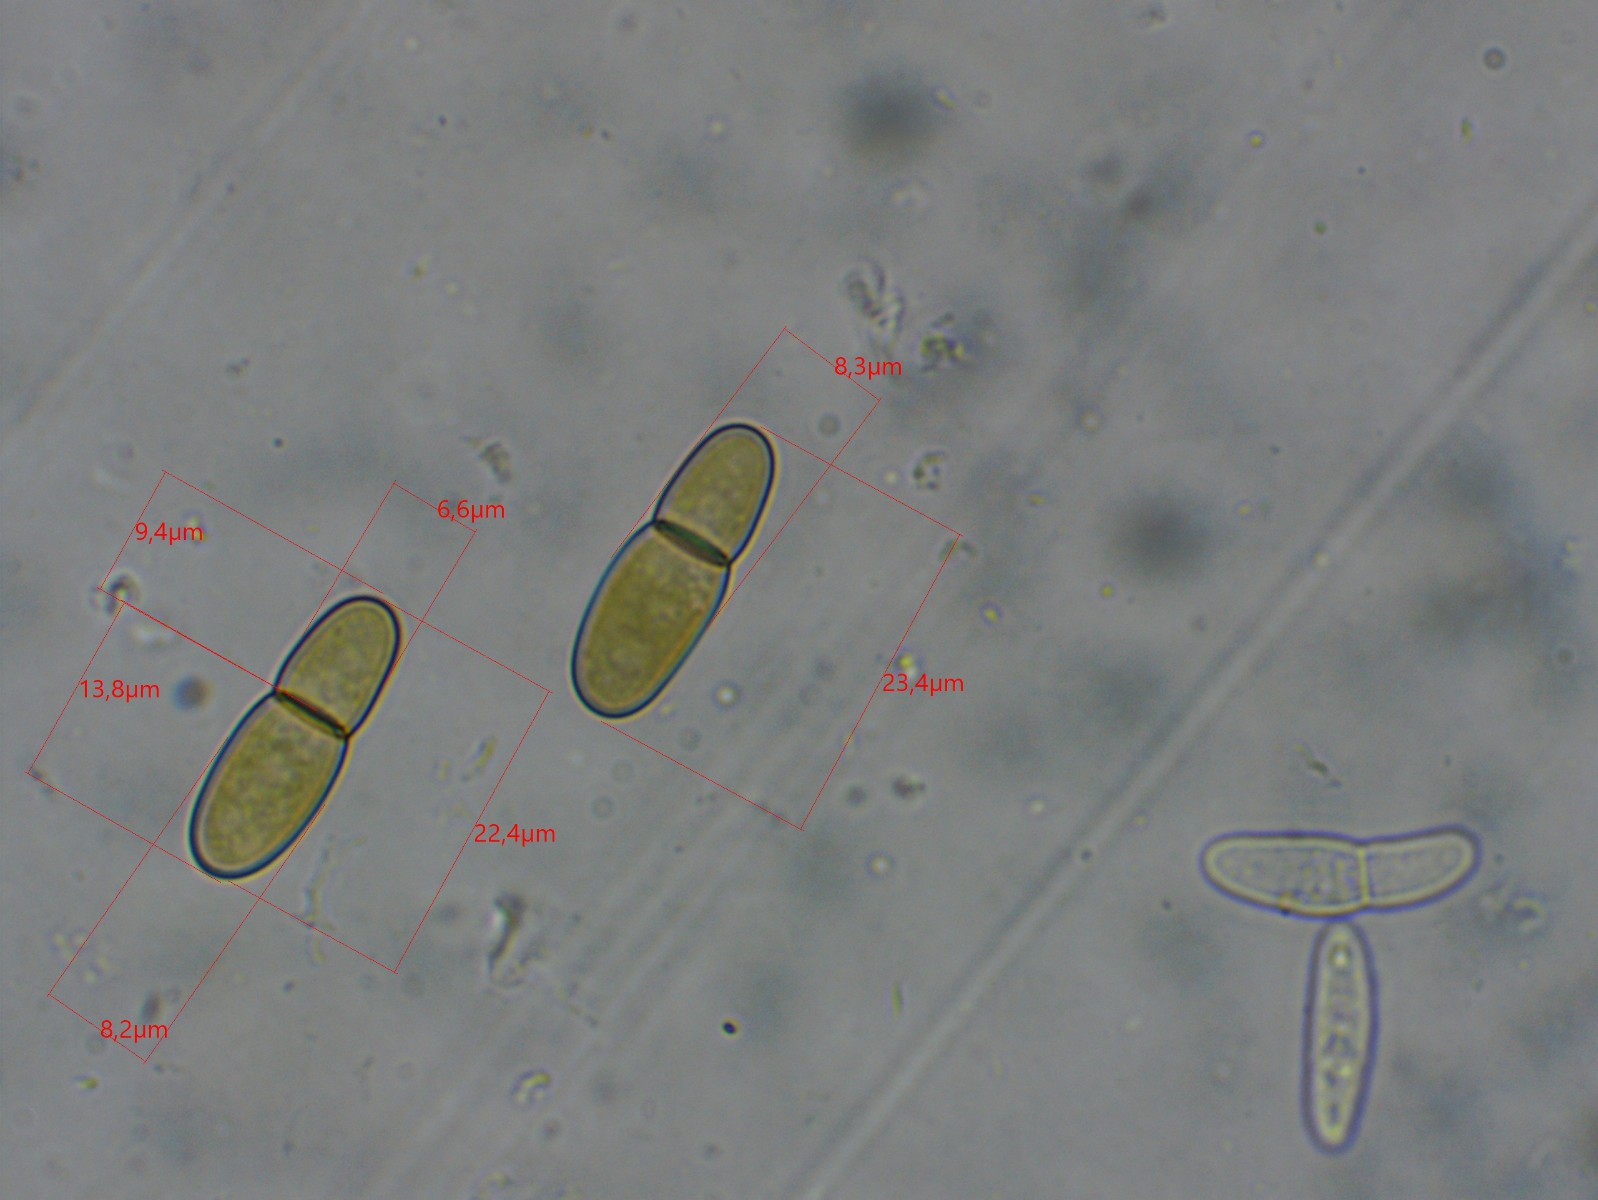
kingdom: Fungi
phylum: Ascomycota
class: Dothideomycetes
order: Dothideales
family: Dothideaceae
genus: Dothidea
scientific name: Dothidea sambuci
